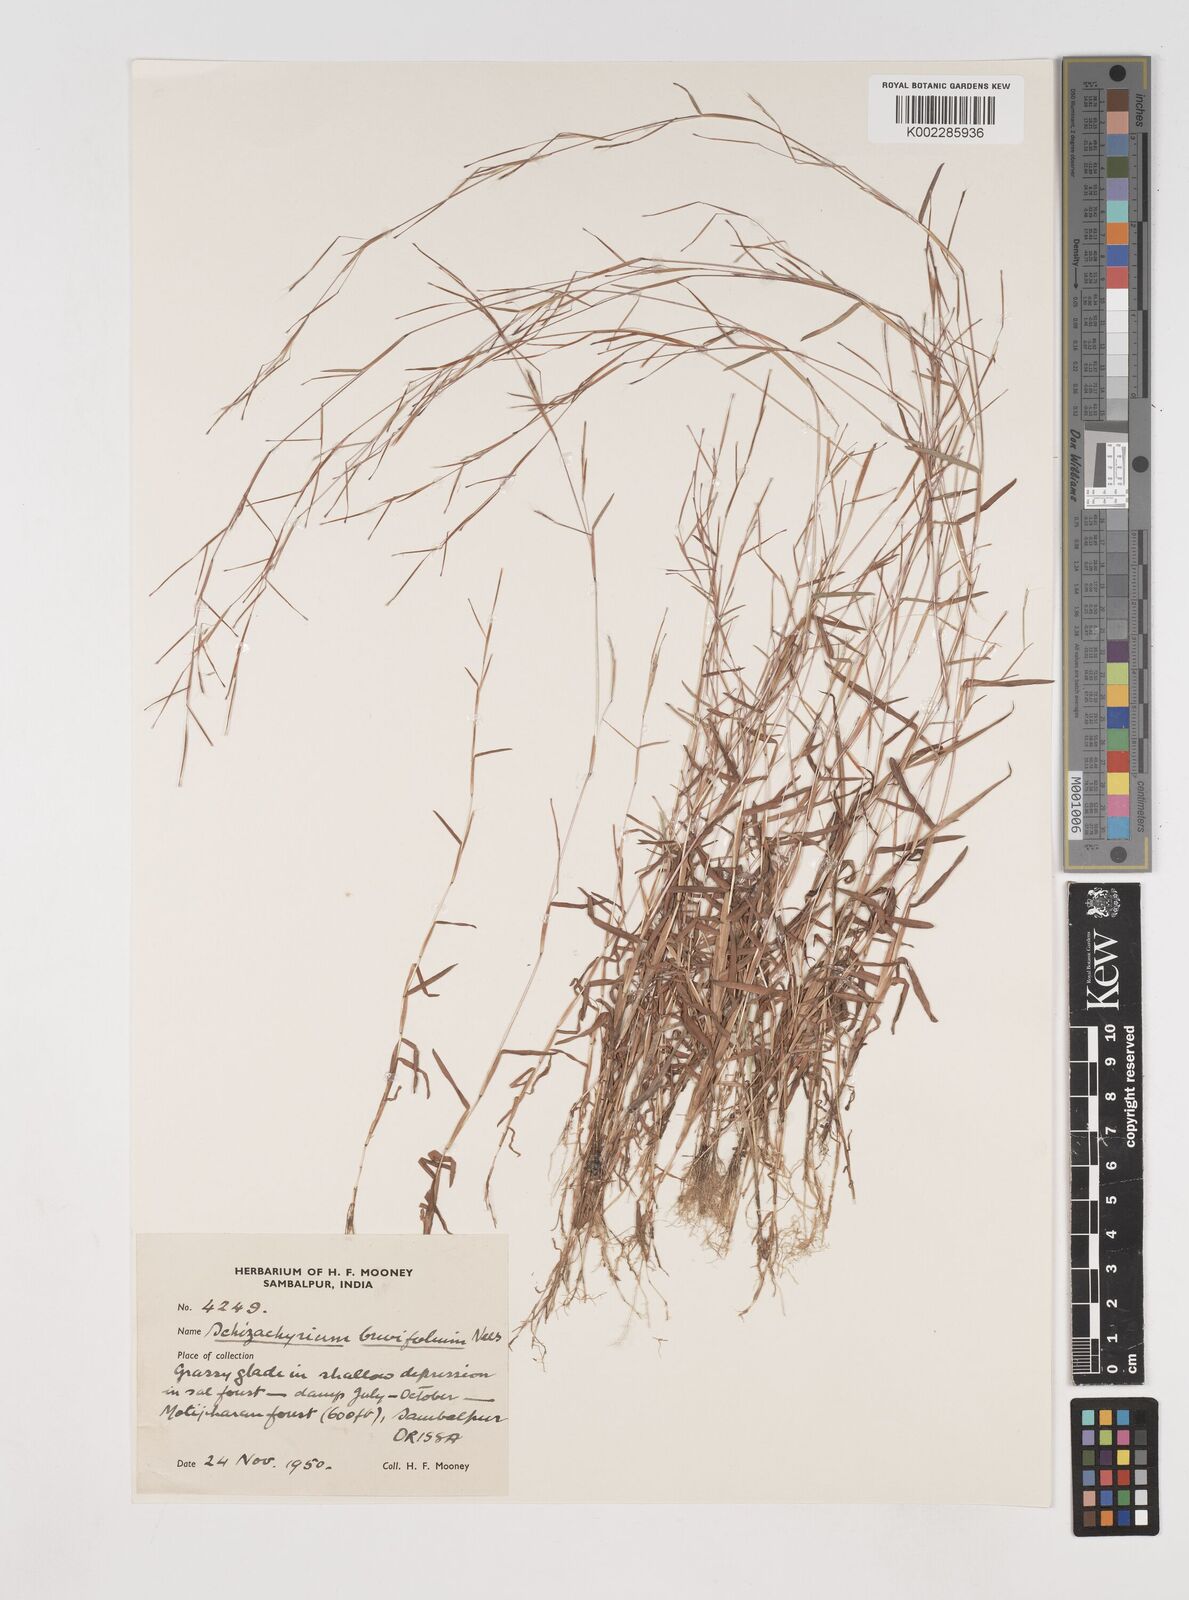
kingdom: Plantae
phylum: Tracheophyta
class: Liliopsida
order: Poales
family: Poaceae
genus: Schizachyrium
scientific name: Schizachyrium brevifolium
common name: Serillo dulce
